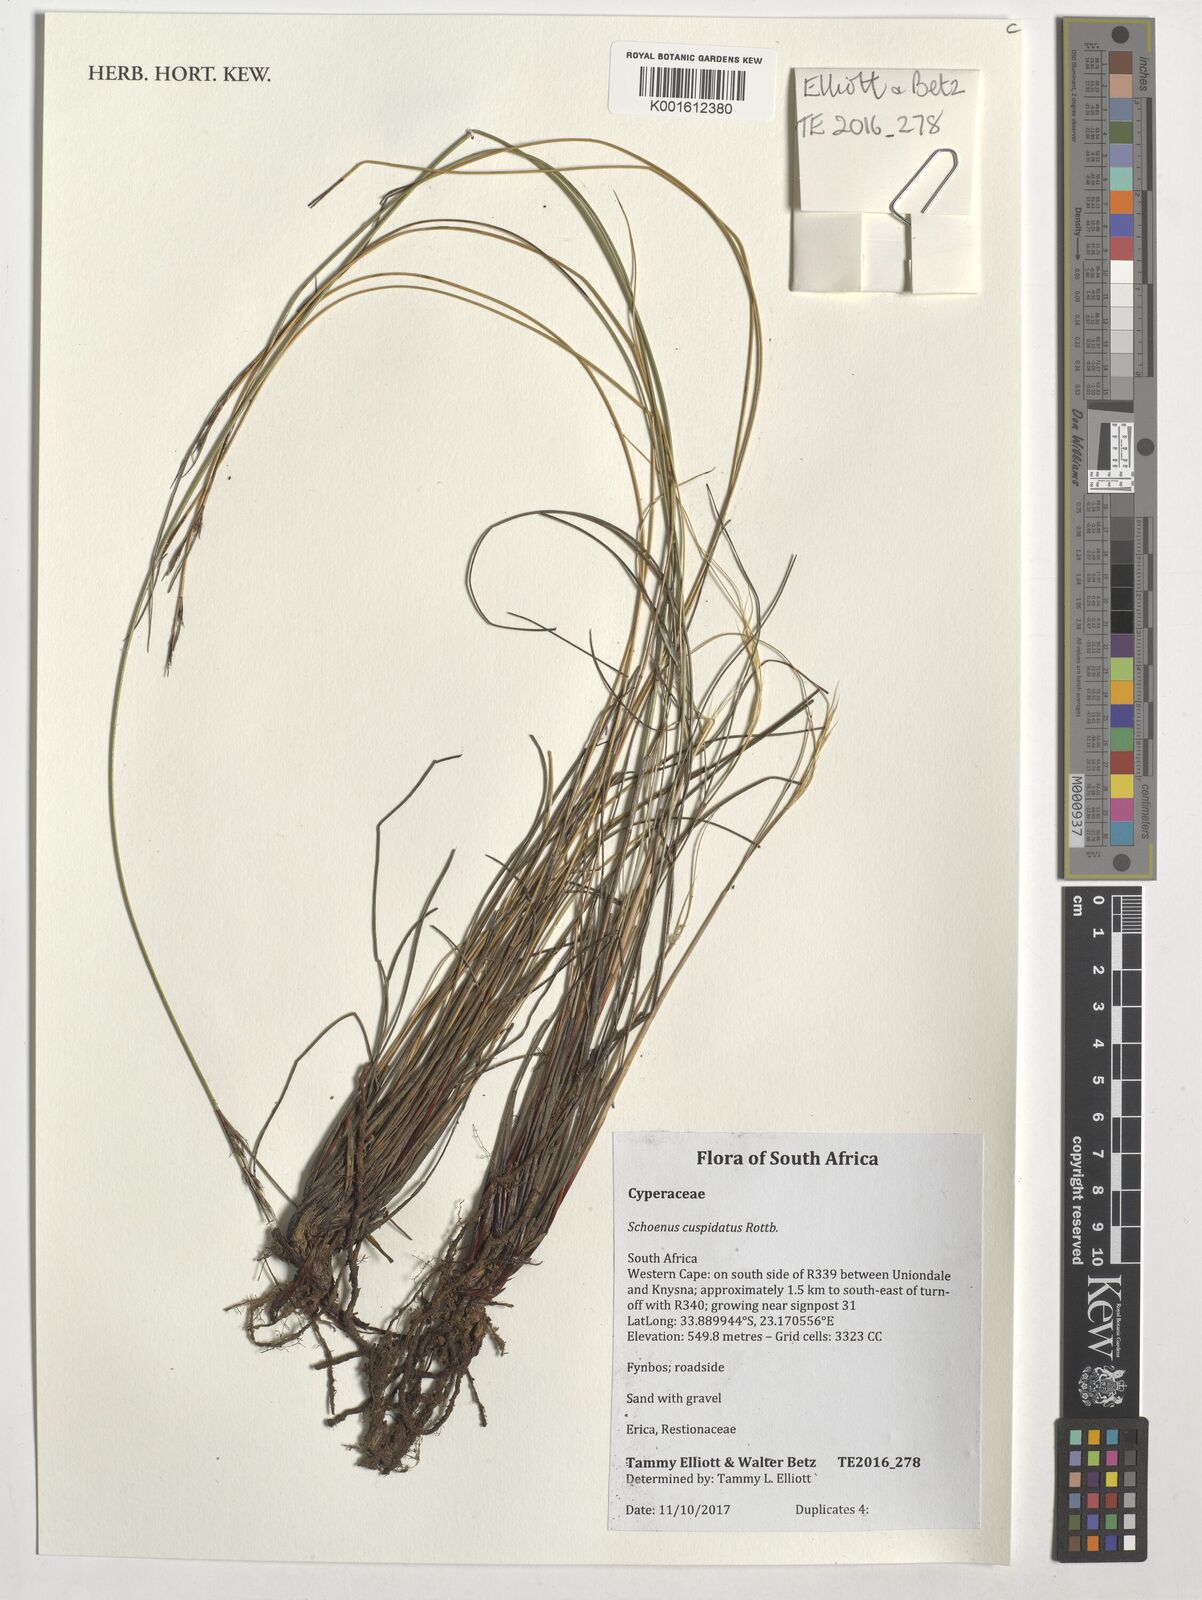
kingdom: Plantae
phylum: Tracheophyta
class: Liliopsida
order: Poales
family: Cyperaceae
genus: Schoenus
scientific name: Schoenus cuspidatus
